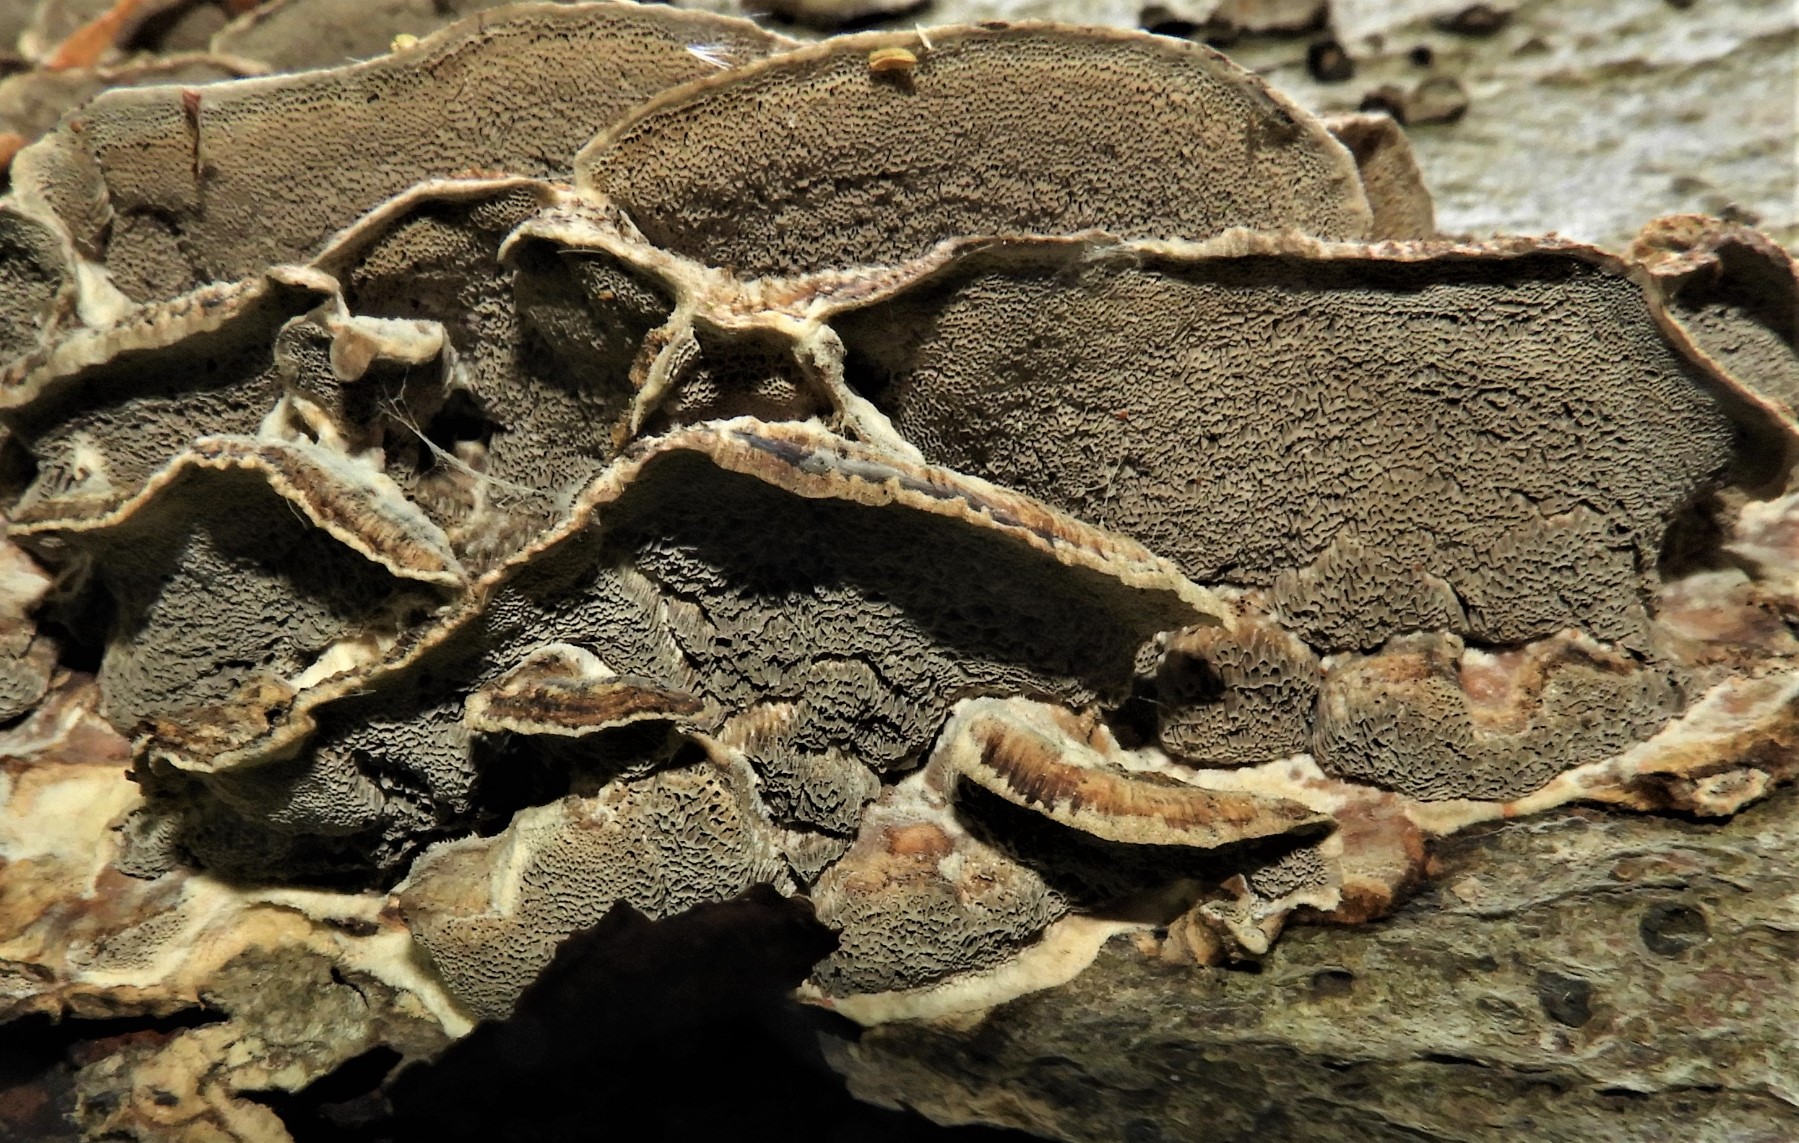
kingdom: Fungi
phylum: Basidiomycota
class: Agaricomycetes
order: Polyporales
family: Phanerochaetaceae
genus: Bjerkandera
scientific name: Bjerkandera adusta
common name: sveden sodporesvamp
